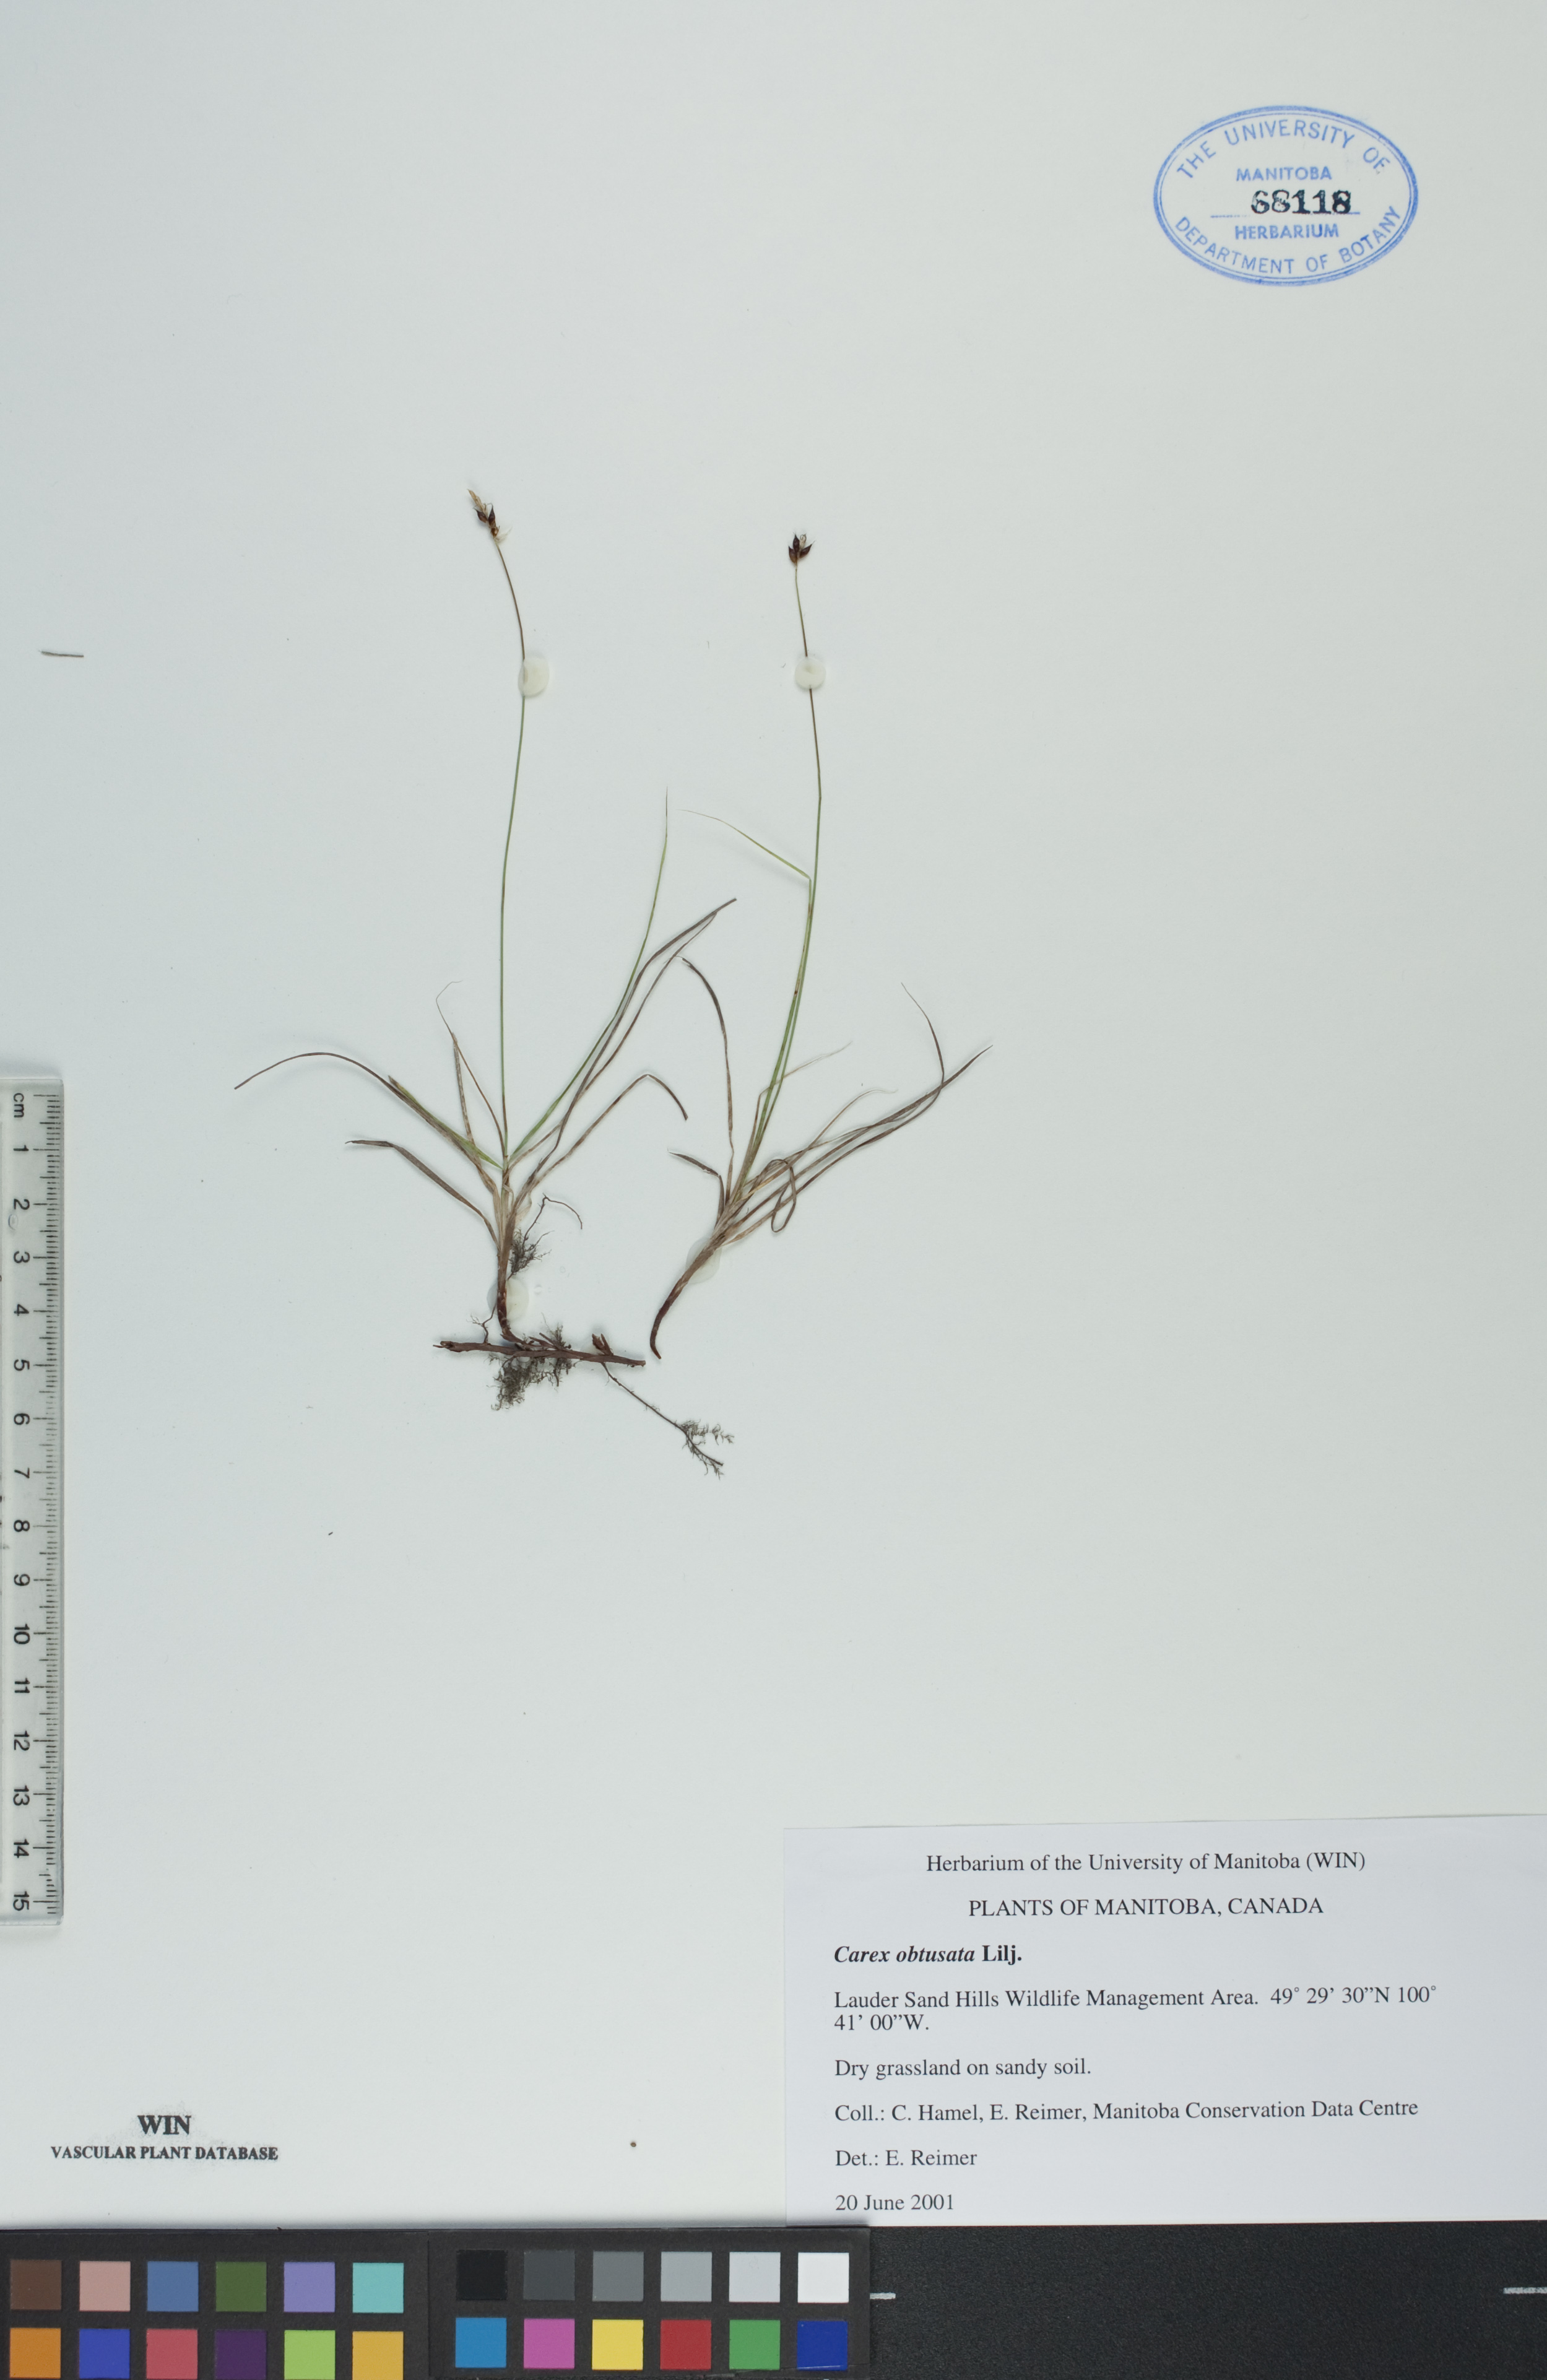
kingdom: Plantae
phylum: Tracheophyta
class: Liliopsida
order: Poales
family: Cyperaceae
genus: Carex
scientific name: Carex obtusata
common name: Blunt sedge
